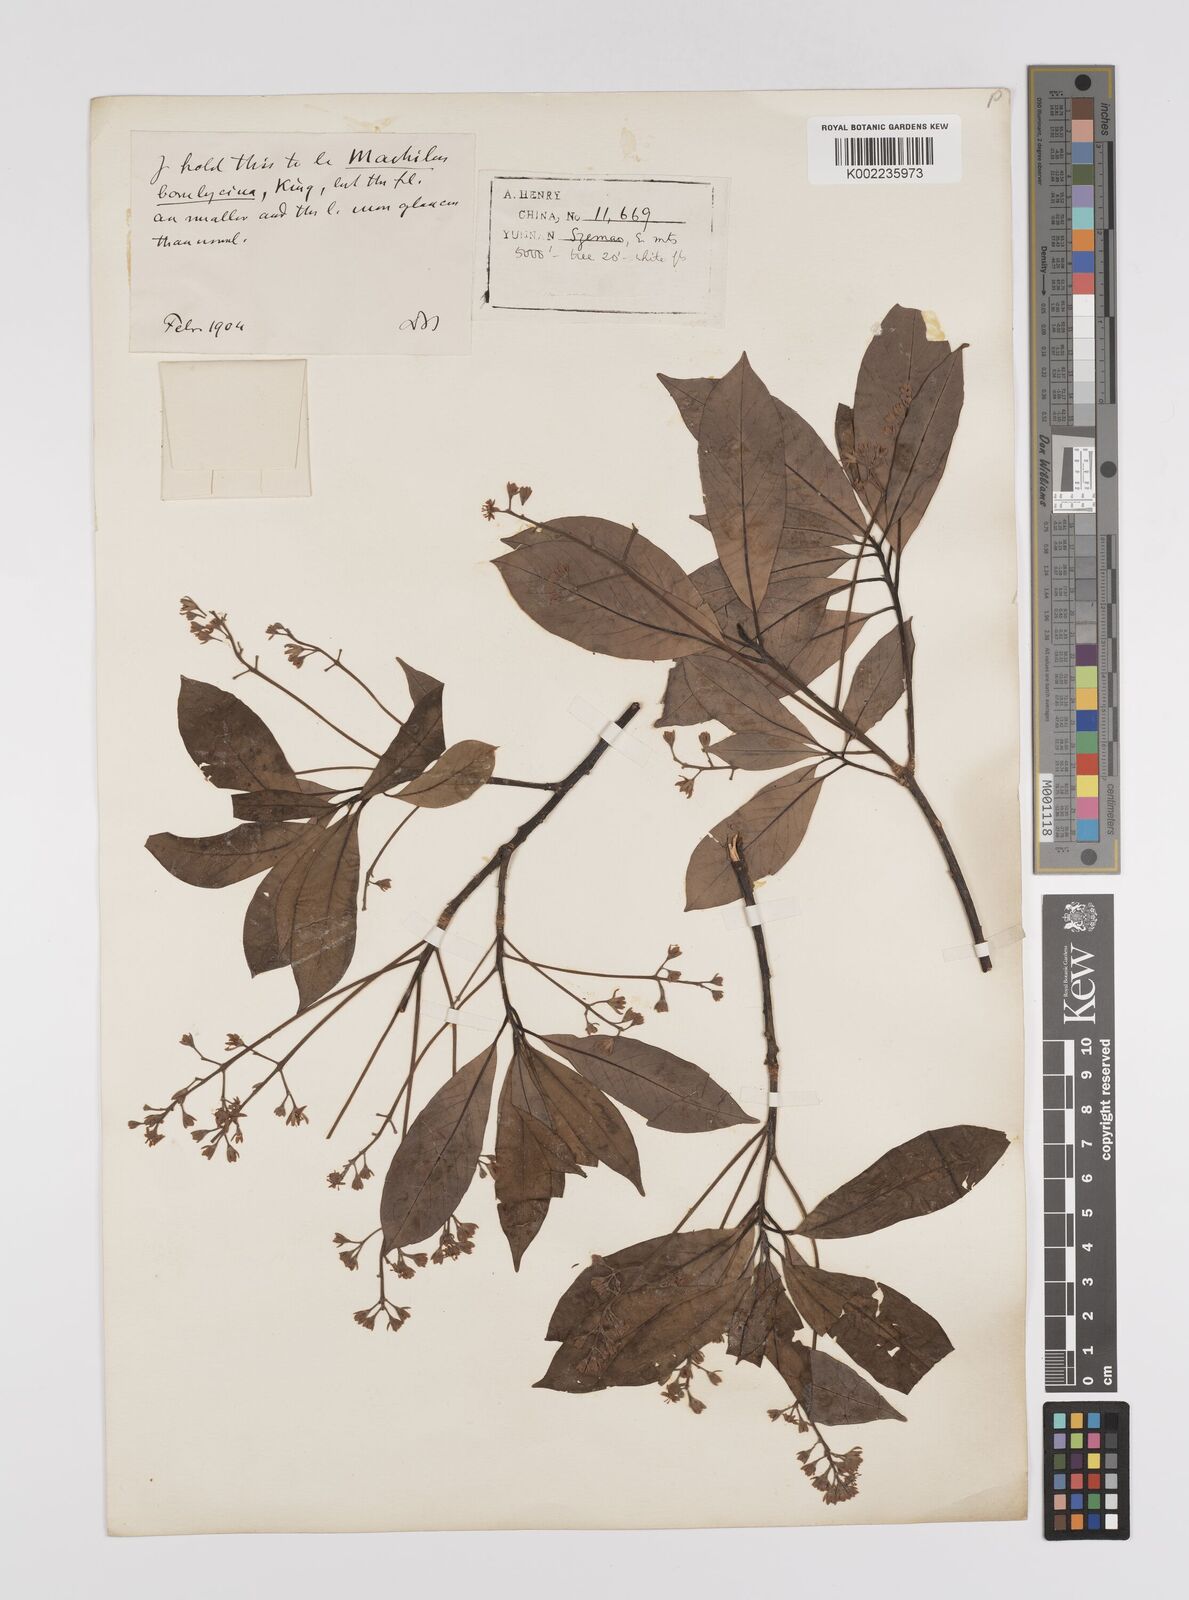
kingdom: Plantae
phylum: Tracheophyta
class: Magnoliopsida
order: Laurales
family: Lauraceae
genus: Persea
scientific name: Persea
